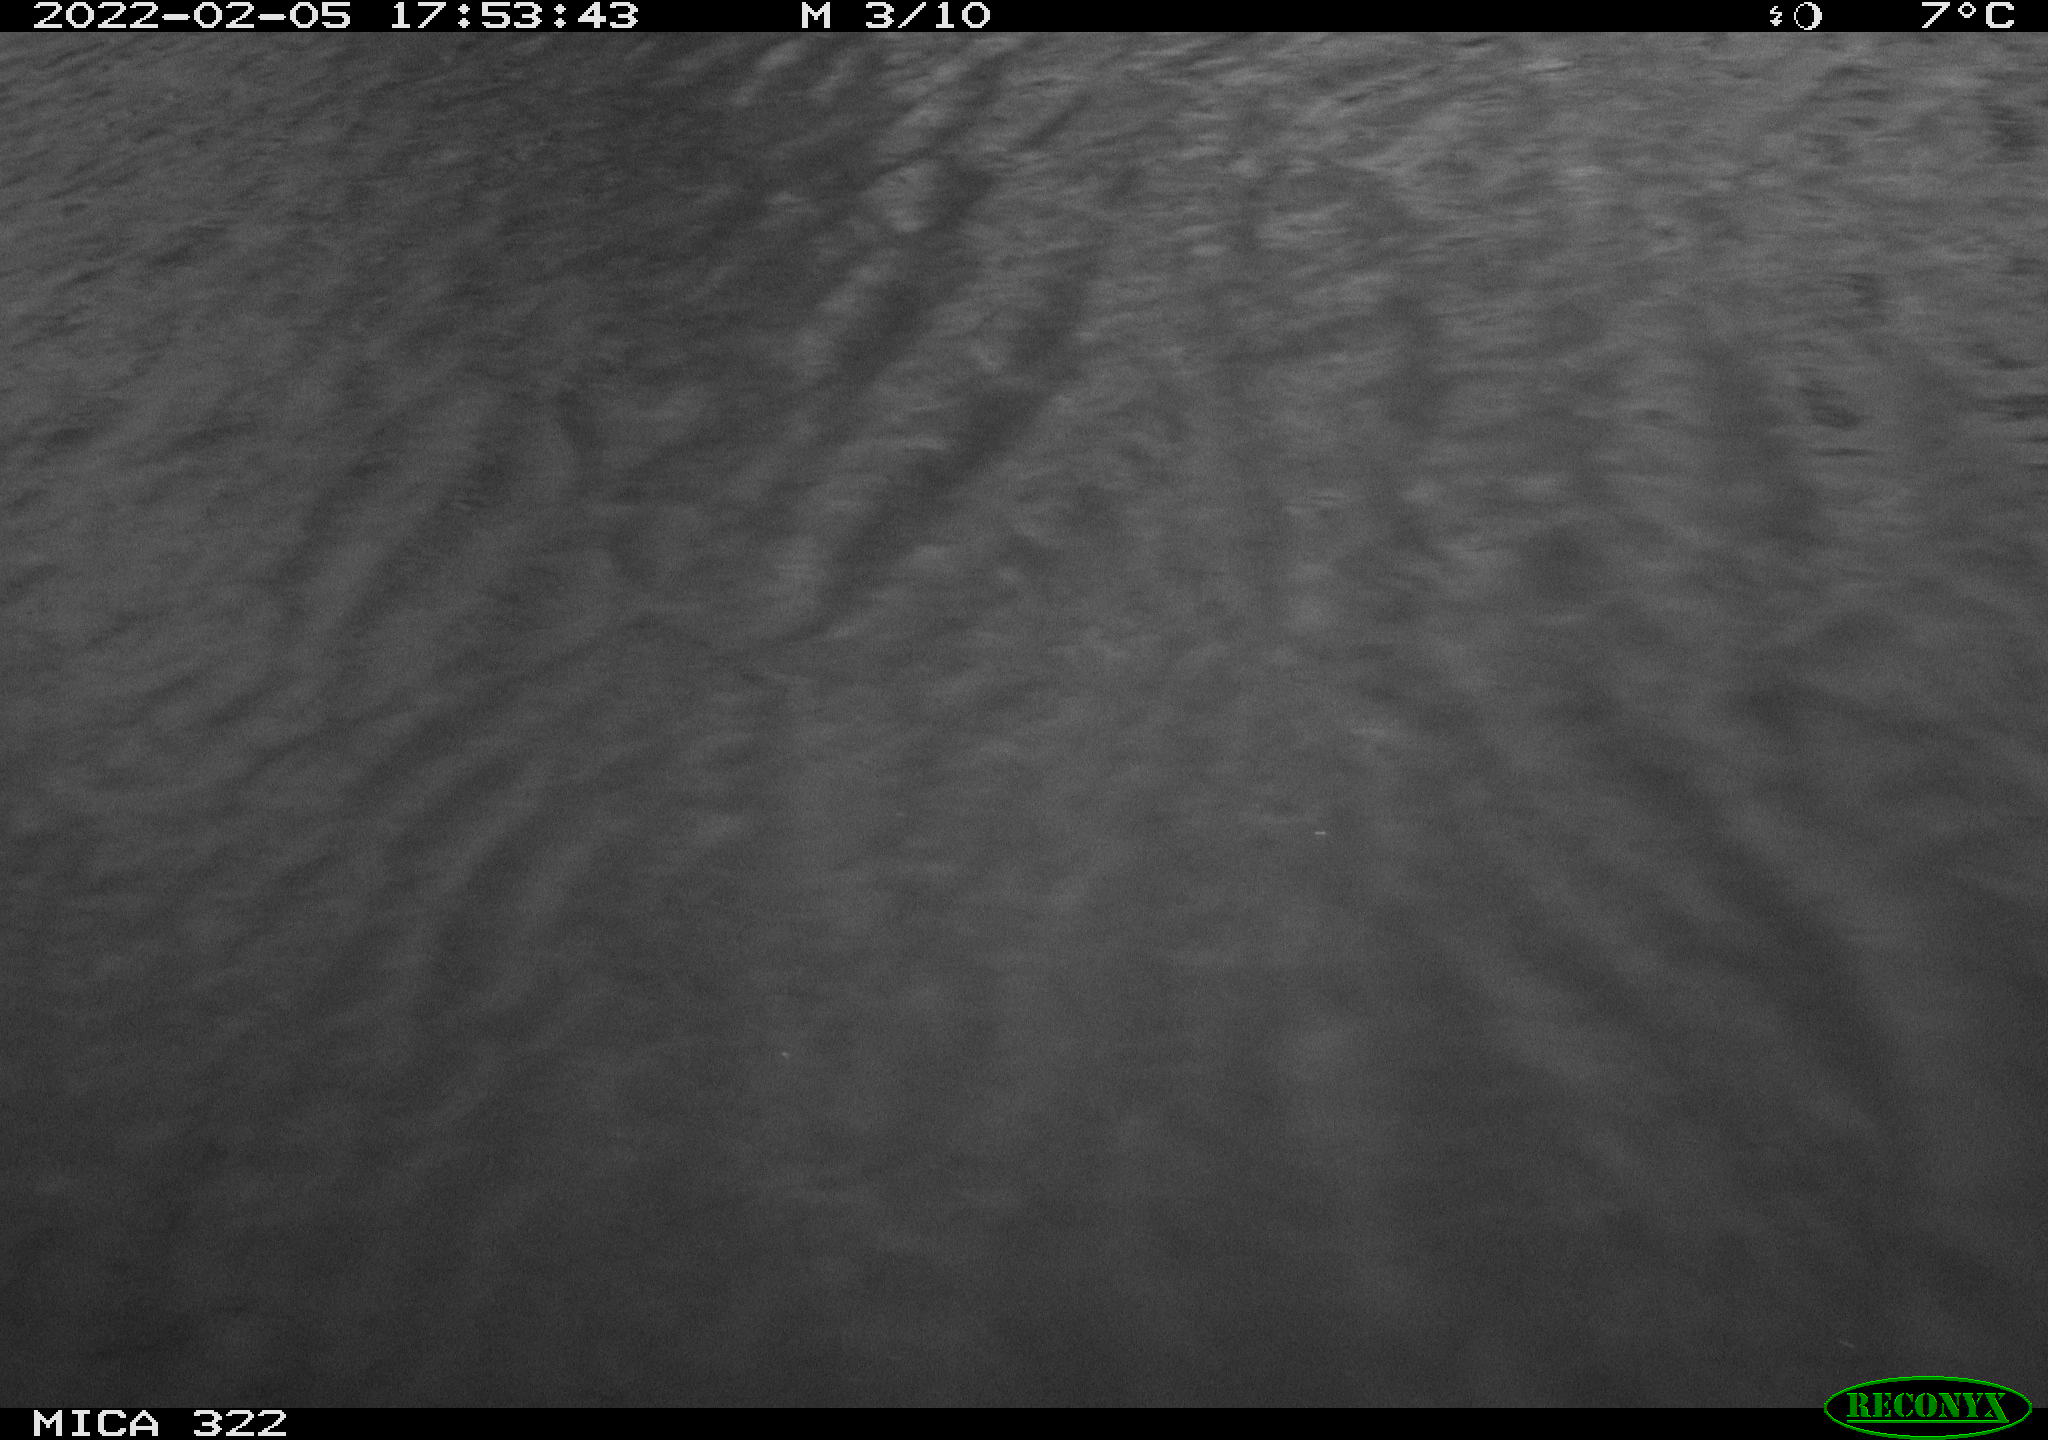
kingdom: Animalia
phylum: Chordata
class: Aves
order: Gruiformes
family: Rallidae
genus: Gallinula
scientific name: Gallinula chloropus
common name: Common moorhen
